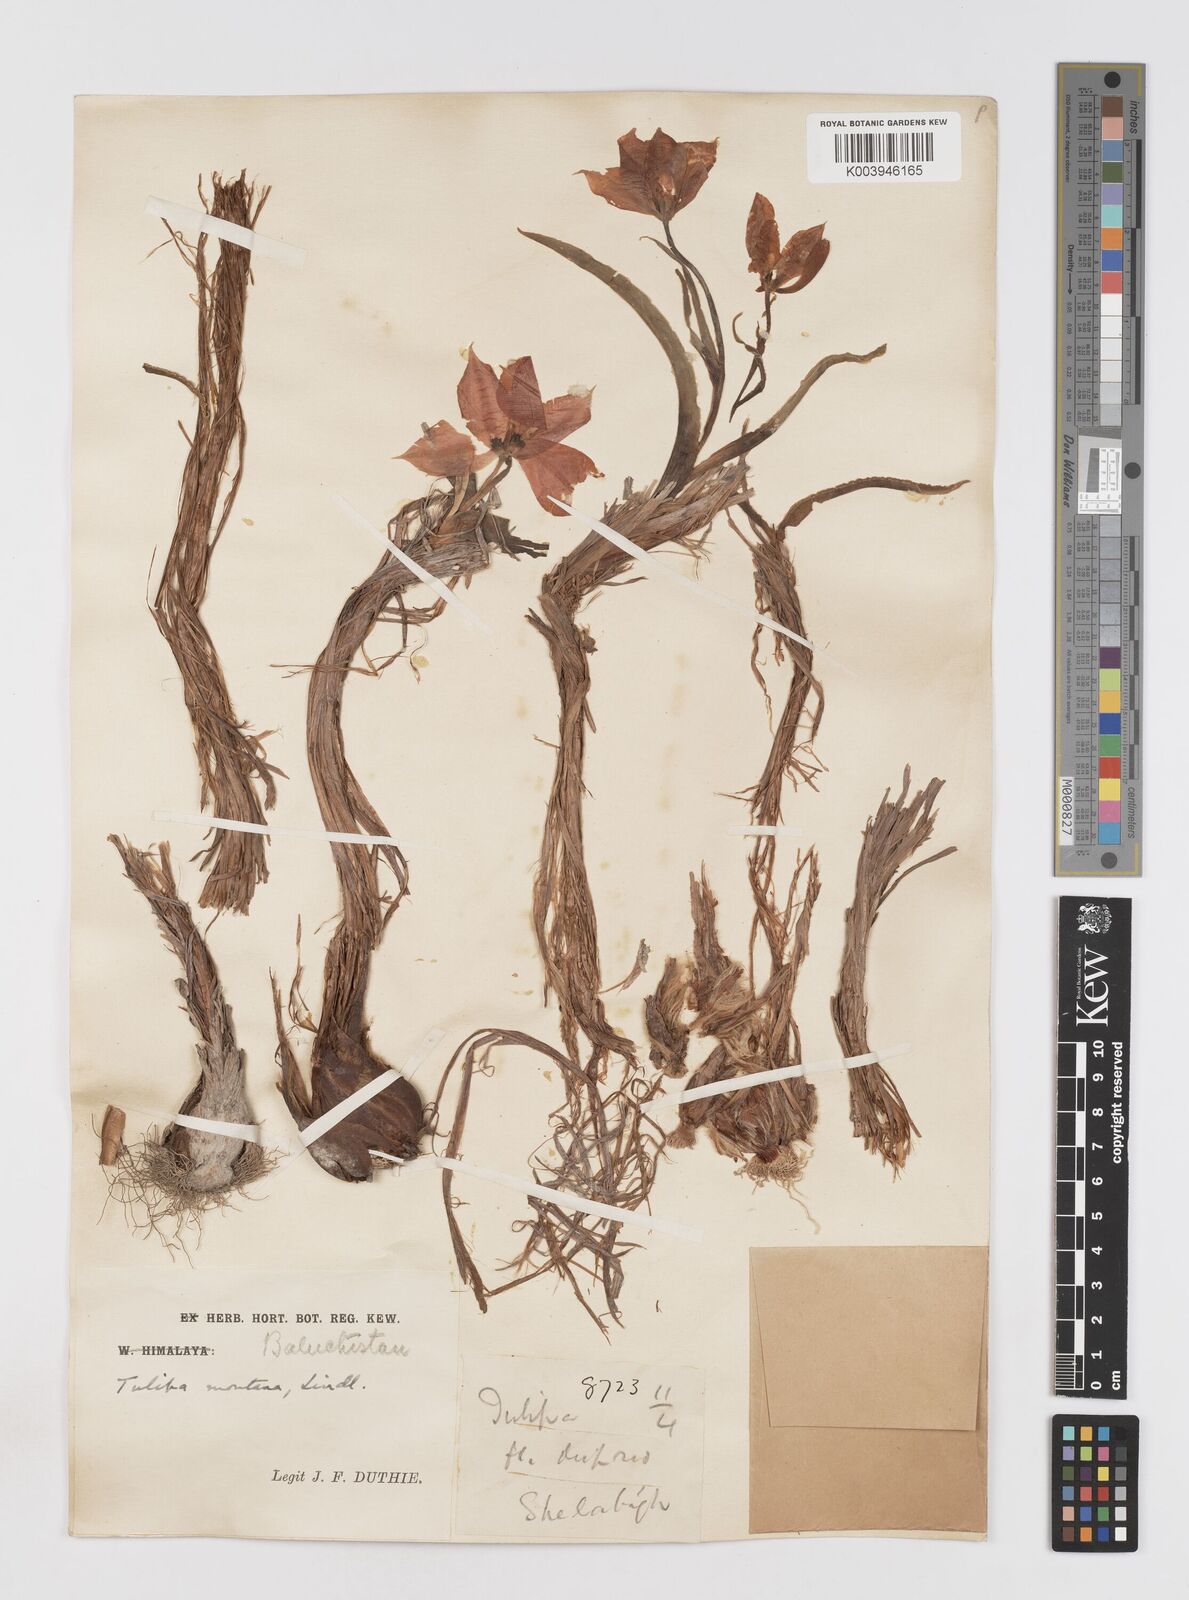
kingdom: Plantae
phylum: Tracheophyta
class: Liliopsida
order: Liliales
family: Liliaceae
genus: Tulipa
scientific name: Tulipa borszczowii
